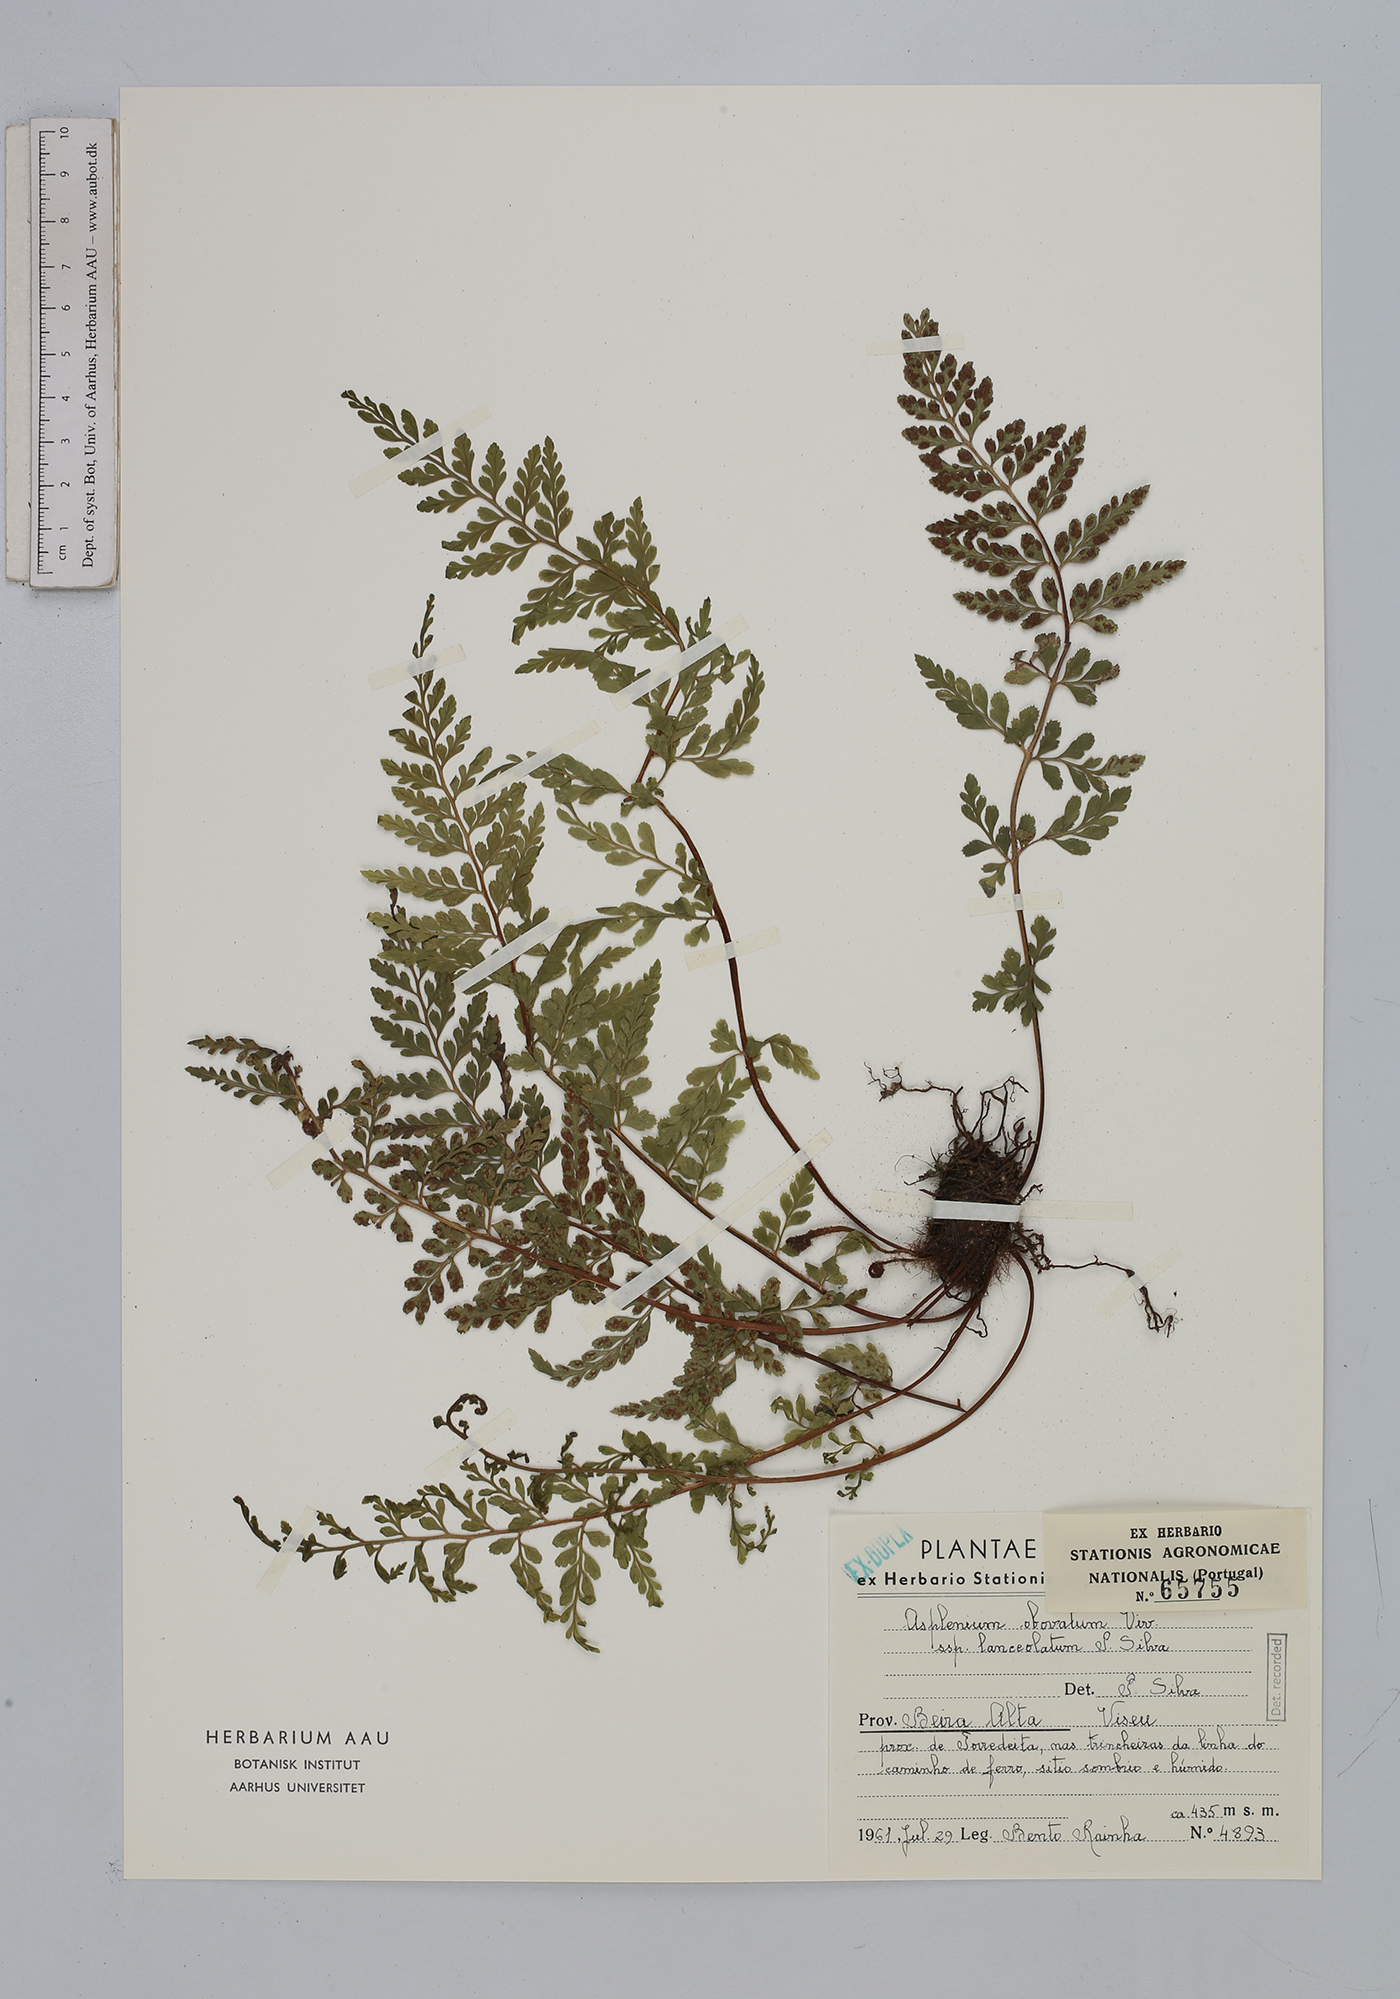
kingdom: Plantae
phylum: Tracheophyta
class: Polypodiopsida
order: Polypodiales
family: Aspleniaceae
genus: Asplenium
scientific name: Asplenium obovatum
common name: Lanceolate spleenwort
